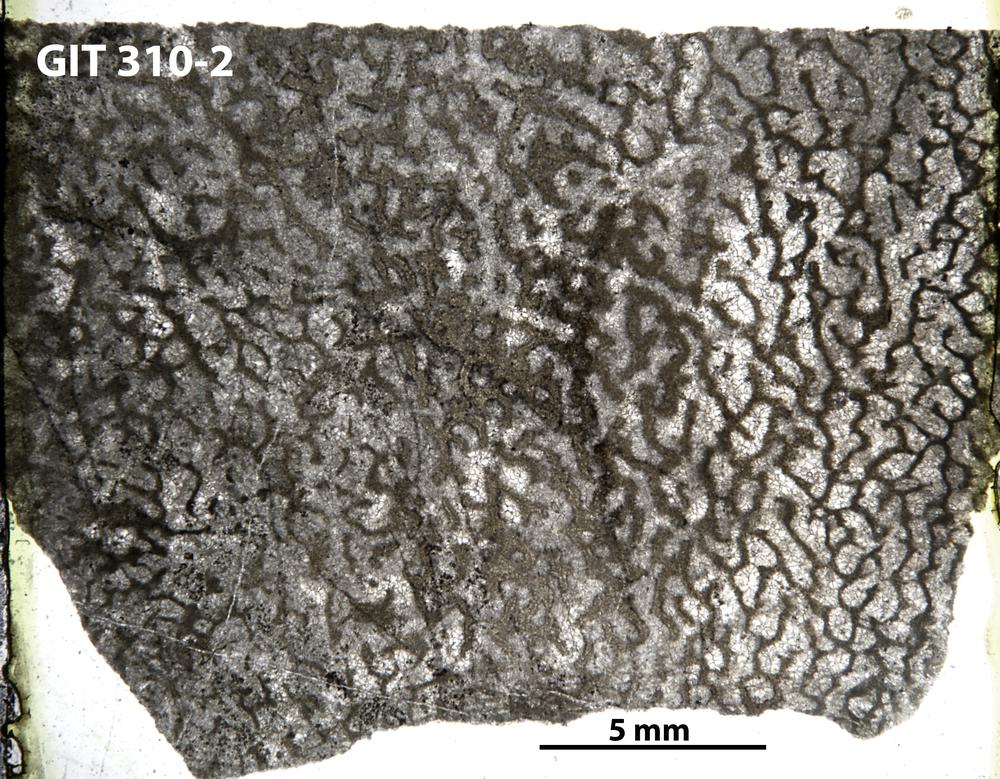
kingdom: Animalia
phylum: Porifera
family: Actinodictyidae
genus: Camptodictyon
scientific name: Camptodictyon
